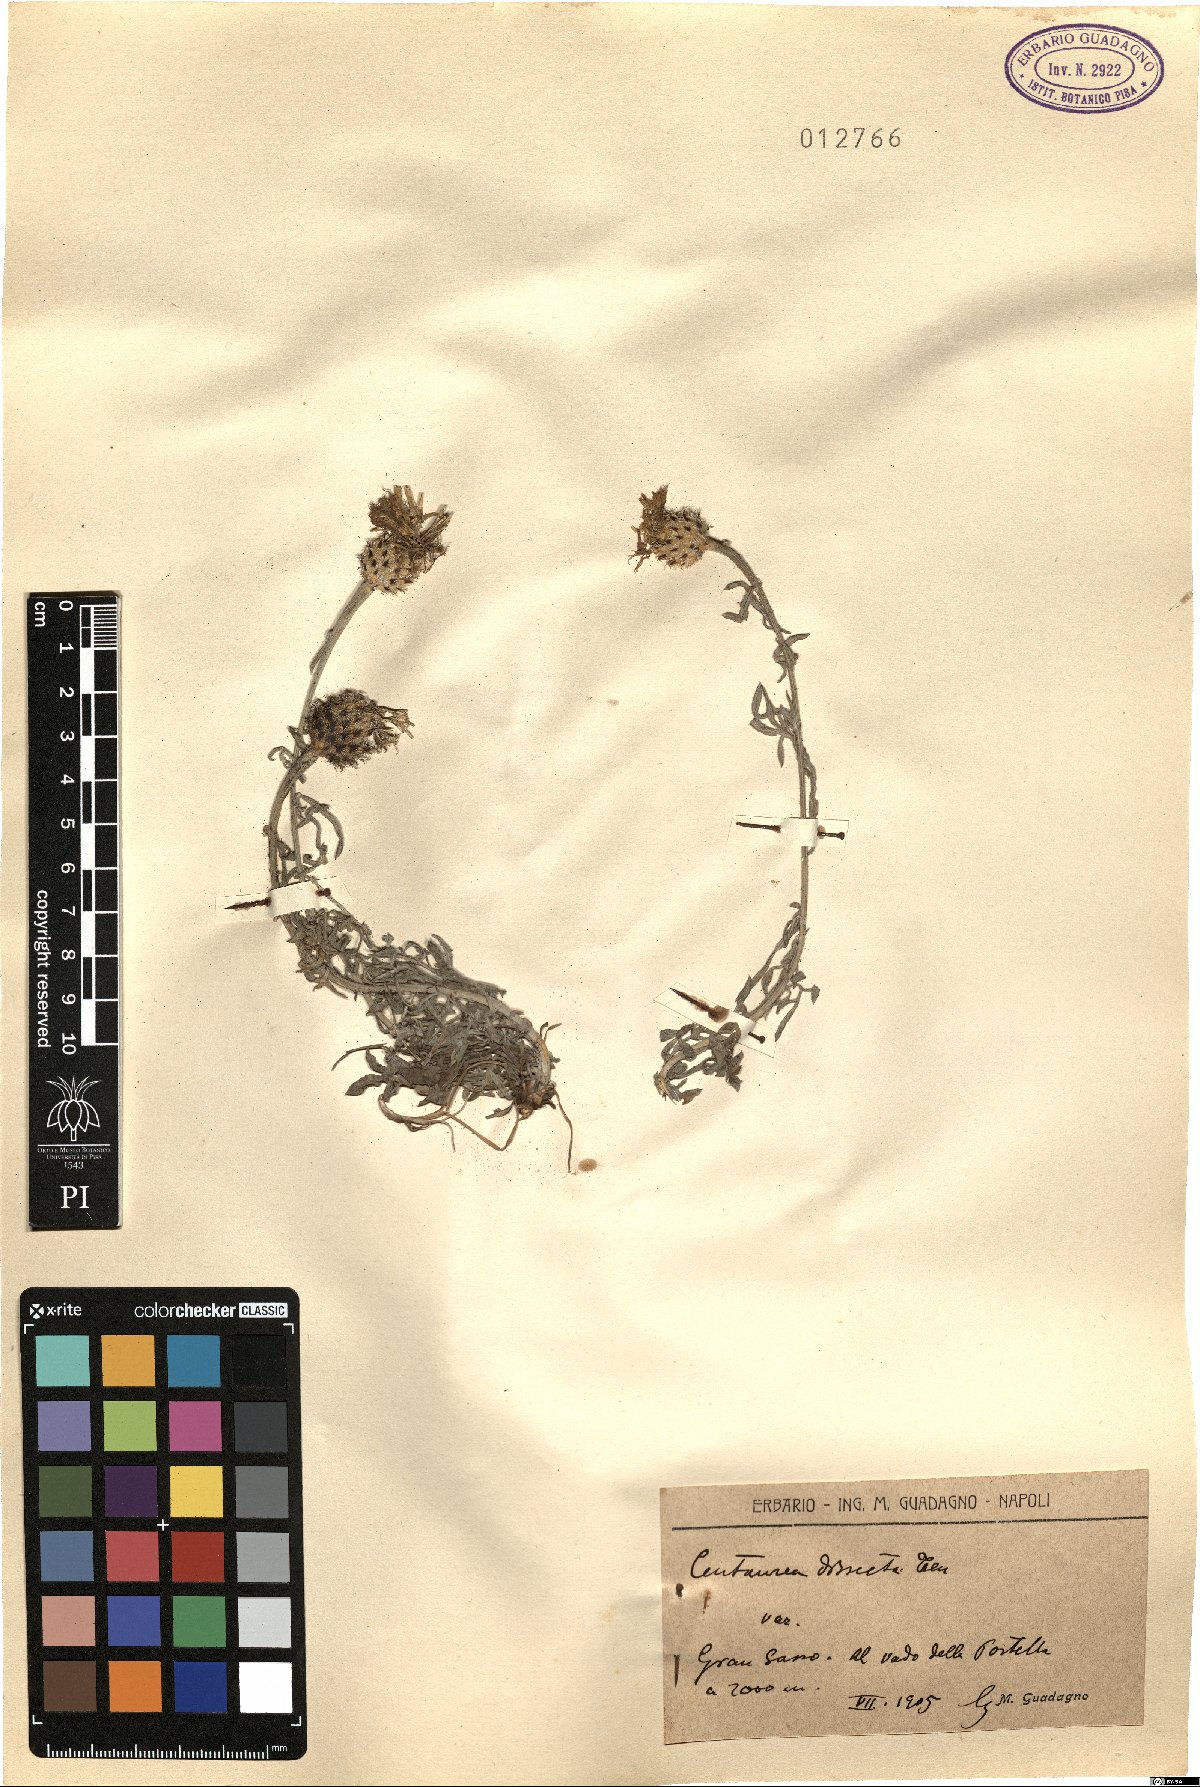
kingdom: Plantae
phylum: Tracheophyta
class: Magnoliopsida
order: Asterales
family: Asteraceae
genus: Centaurea
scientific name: Centaurea tenorei
